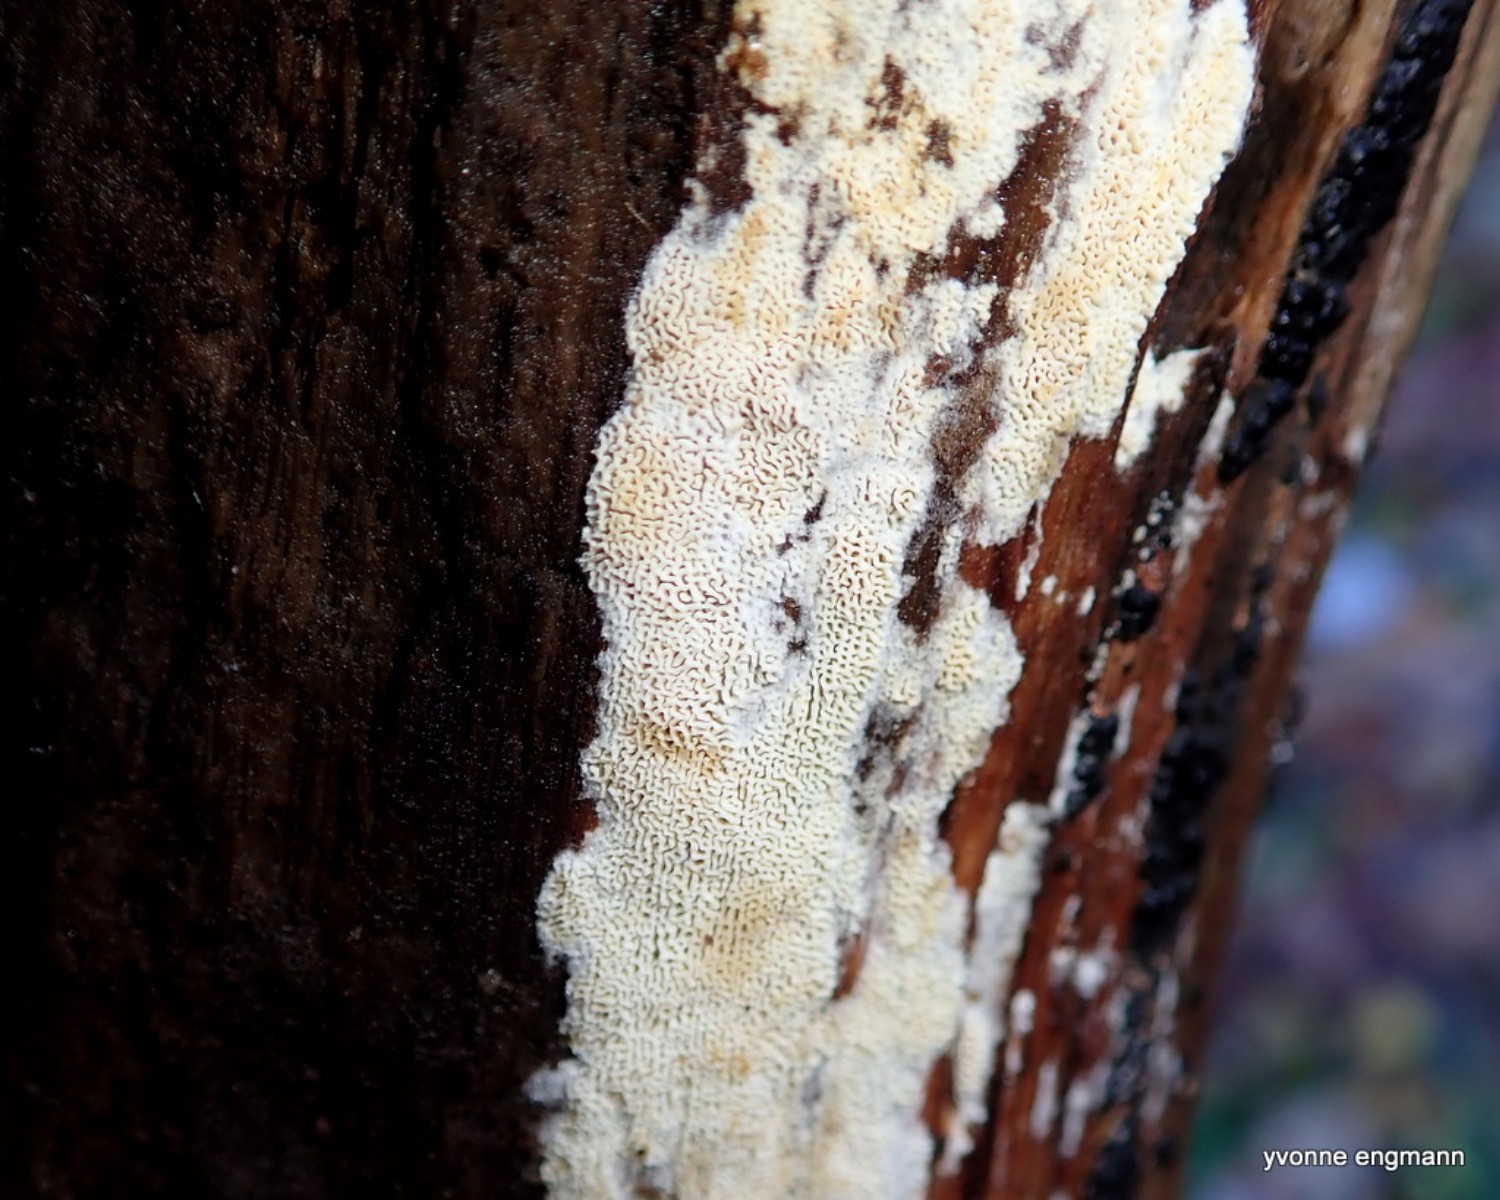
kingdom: Fungi
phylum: Basidiomycota
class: Agaricomycetes
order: Hymenochaetales
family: Schizoporaceae
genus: Xylodon
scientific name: Xylodon subtropicus
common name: labyrint-tandsvamp
